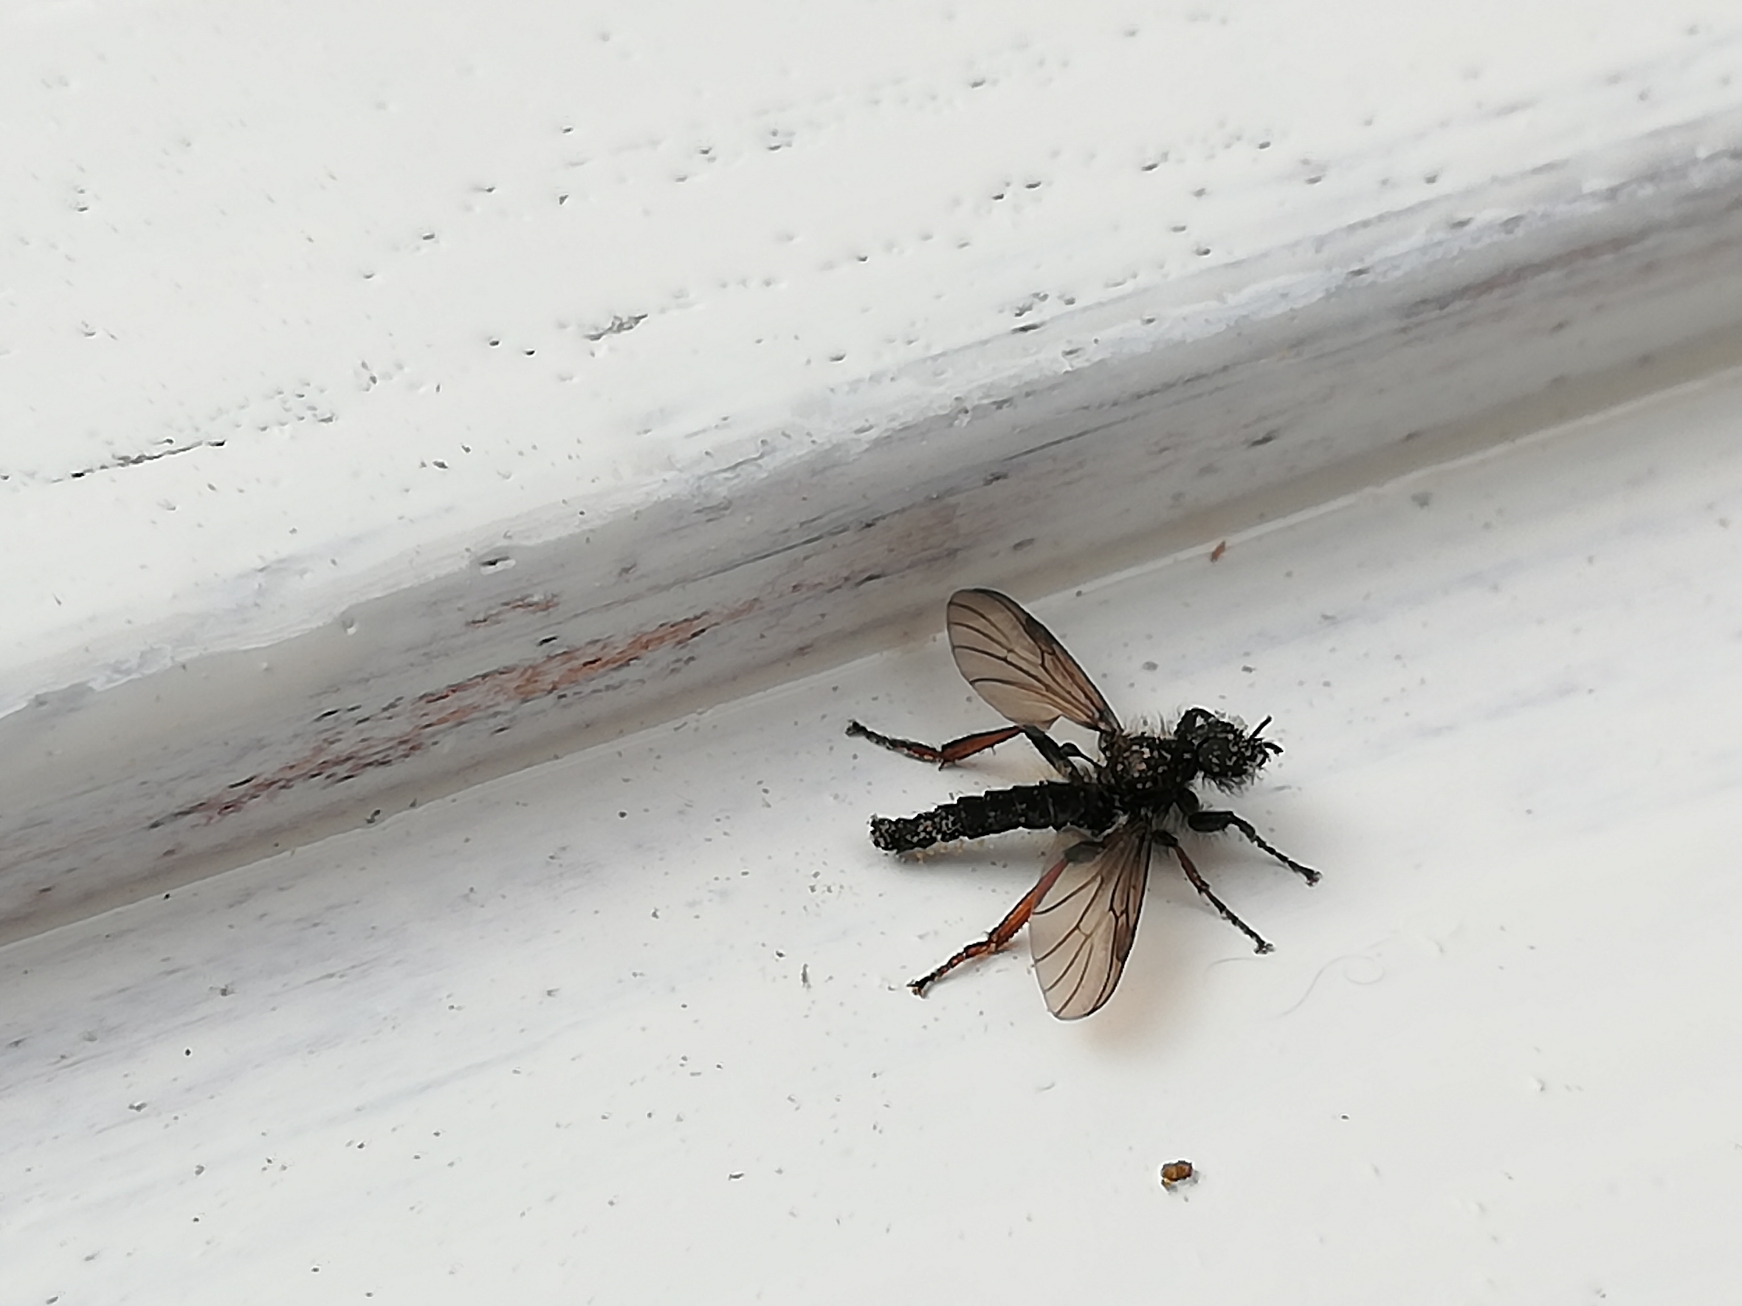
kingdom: Animalia
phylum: Arthropoda
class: Insecta
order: Diptera
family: Bibionidae
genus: Bibio
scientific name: Bibio lanigerus
